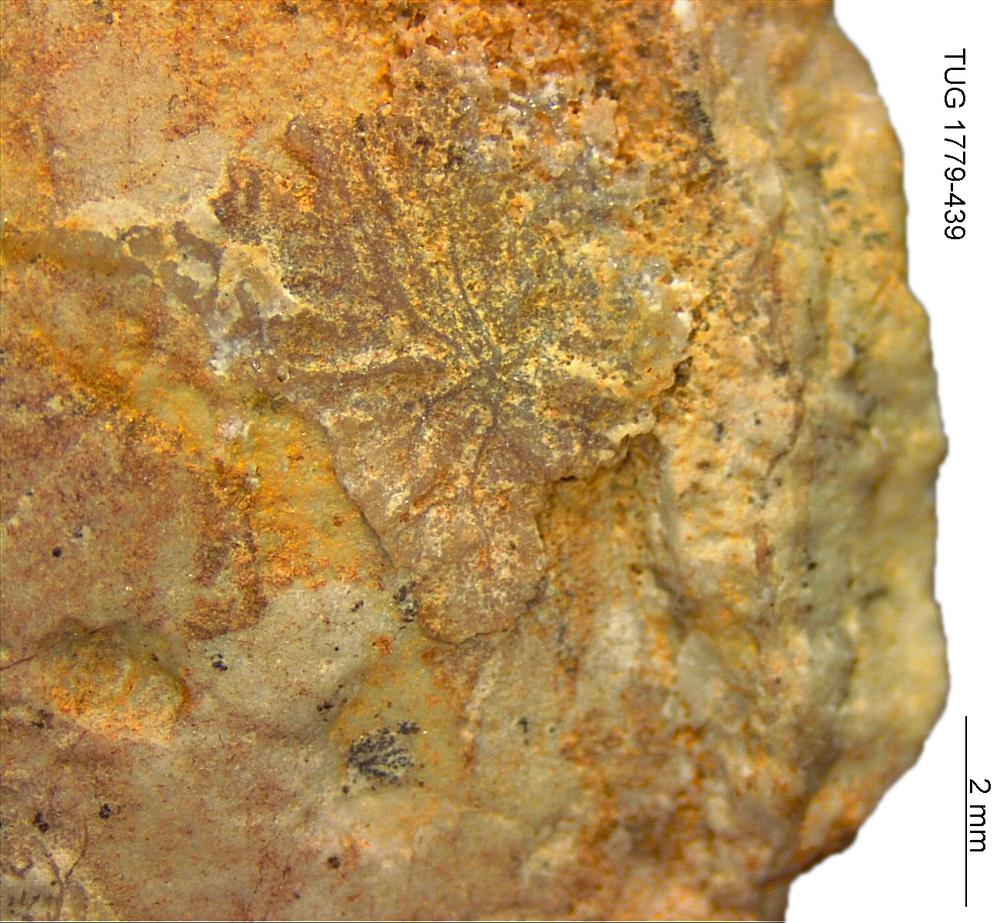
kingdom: Animalia
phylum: Brachiopoda
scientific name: Brachiopoda
